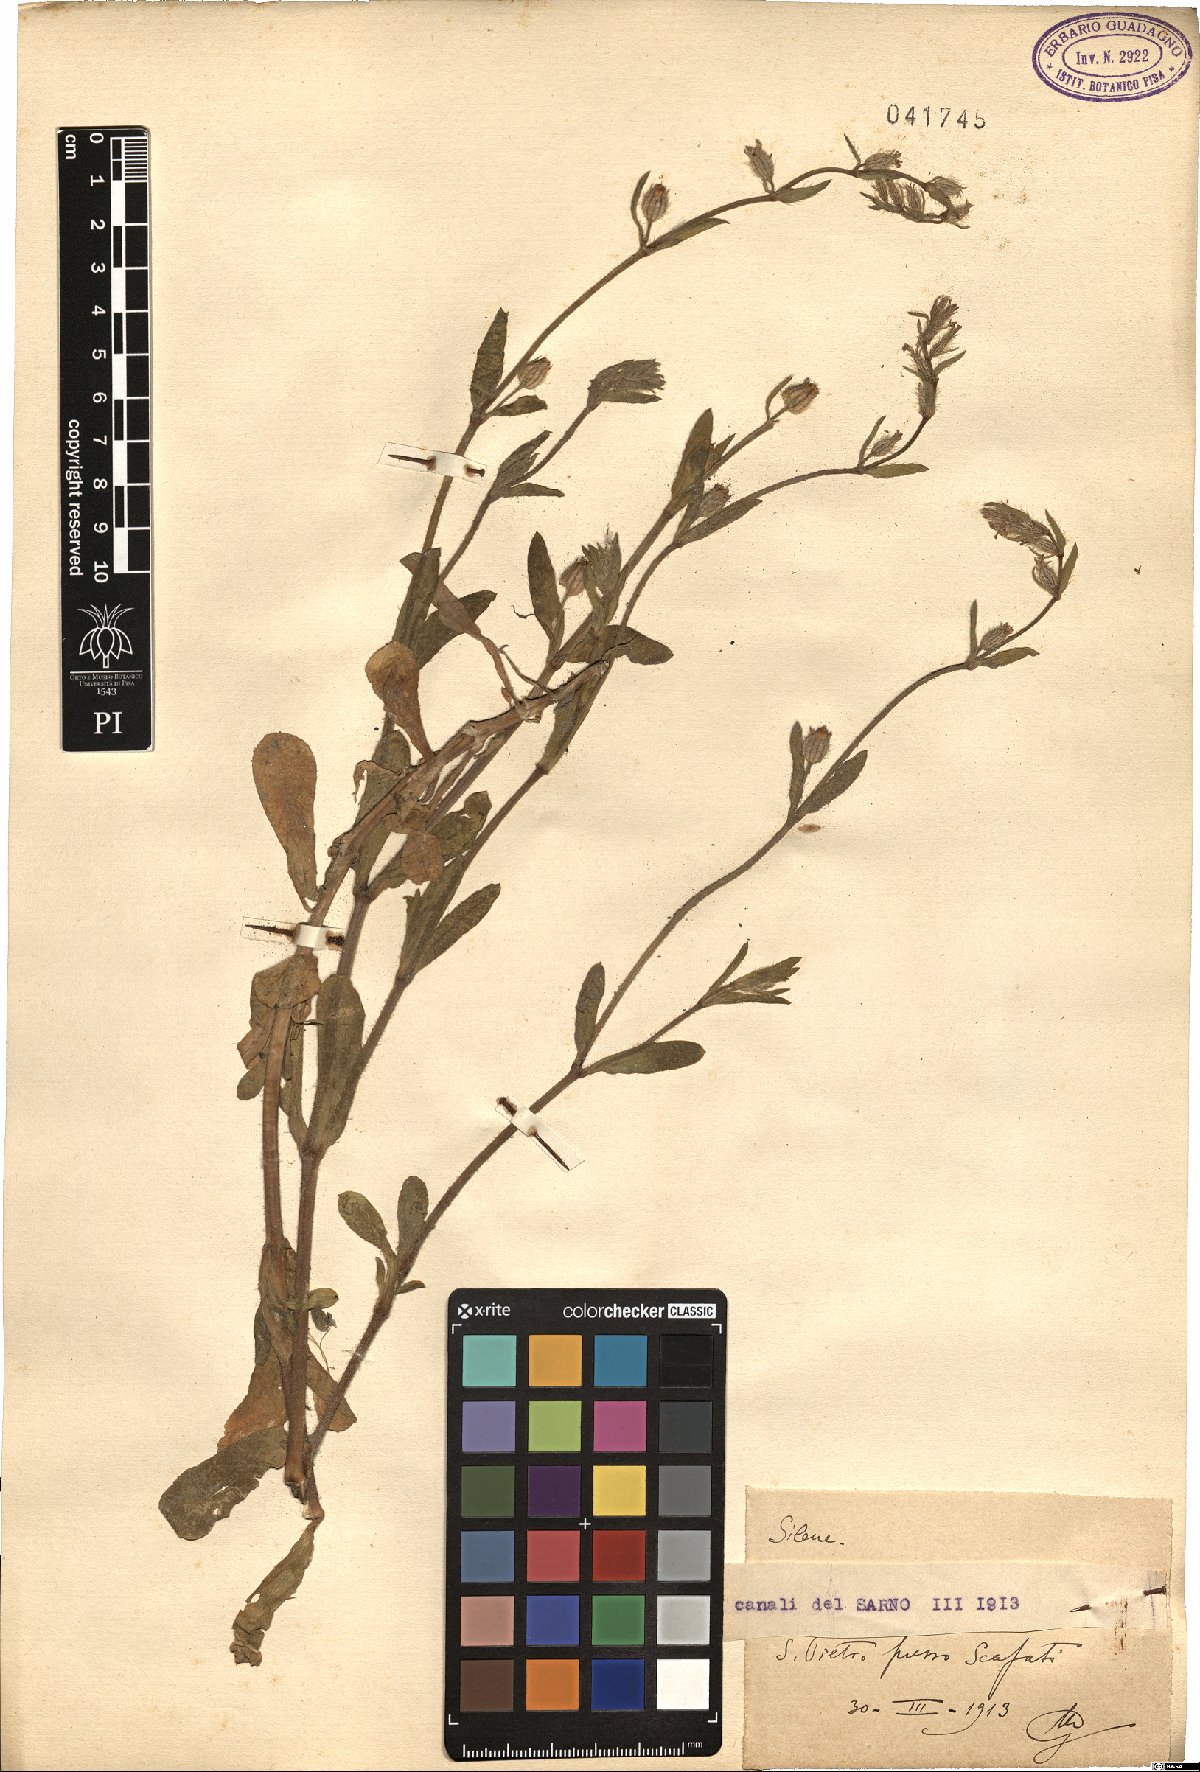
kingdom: Plantae
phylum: Tracheophyta
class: Magnoliopsida
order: Caryophyllales
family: Caryophyllaceae
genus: Silene
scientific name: Silene
